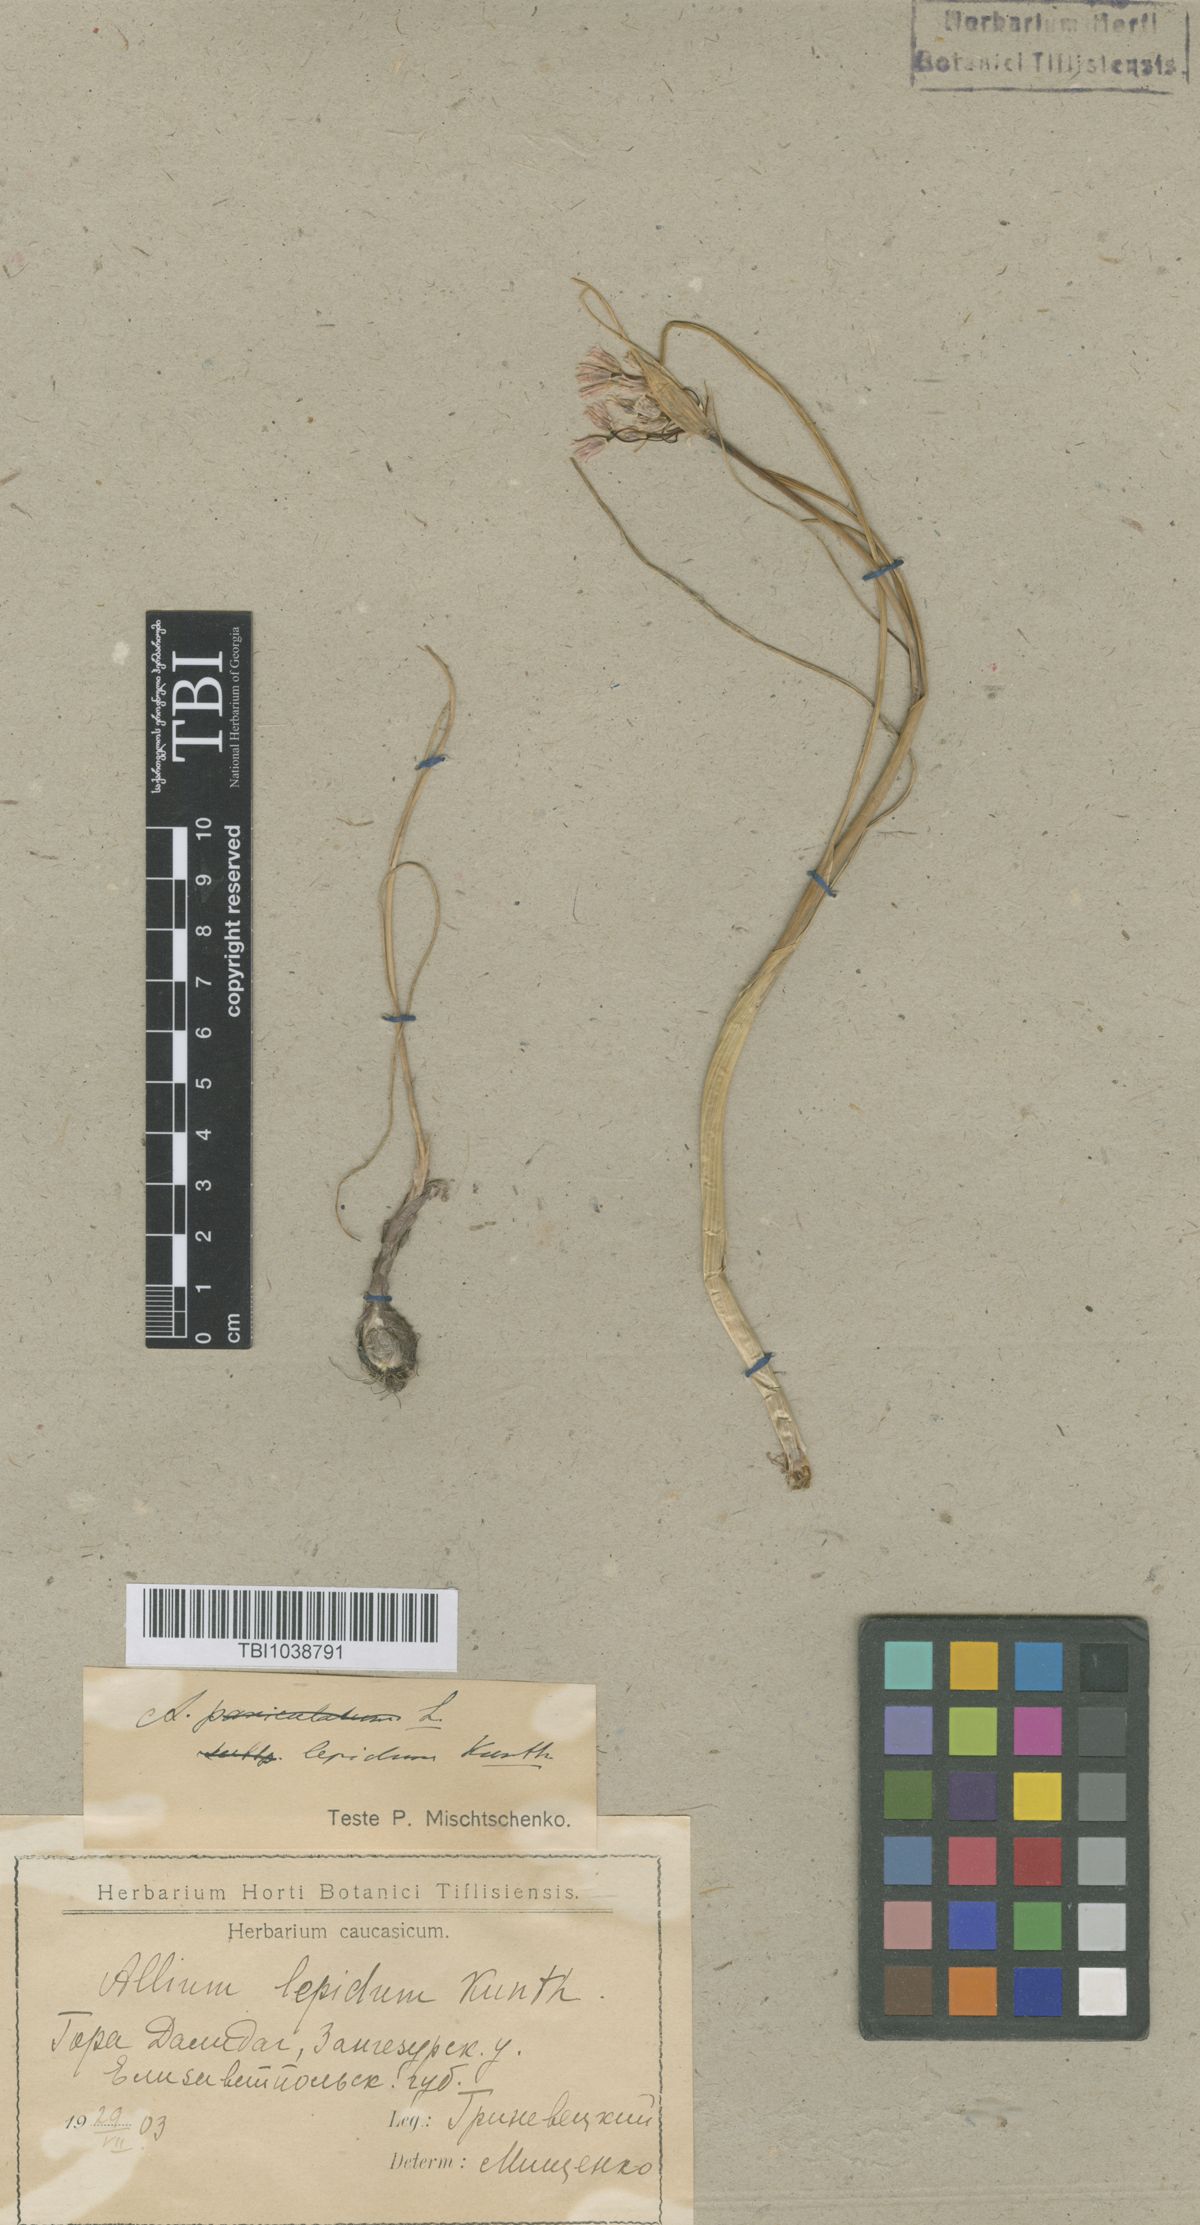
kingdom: Plantae
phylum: Tracheophyta
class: Liliopsida
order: Asparagales
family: Amaryllidaceae
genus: Allium
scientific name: Allium kunthianum
